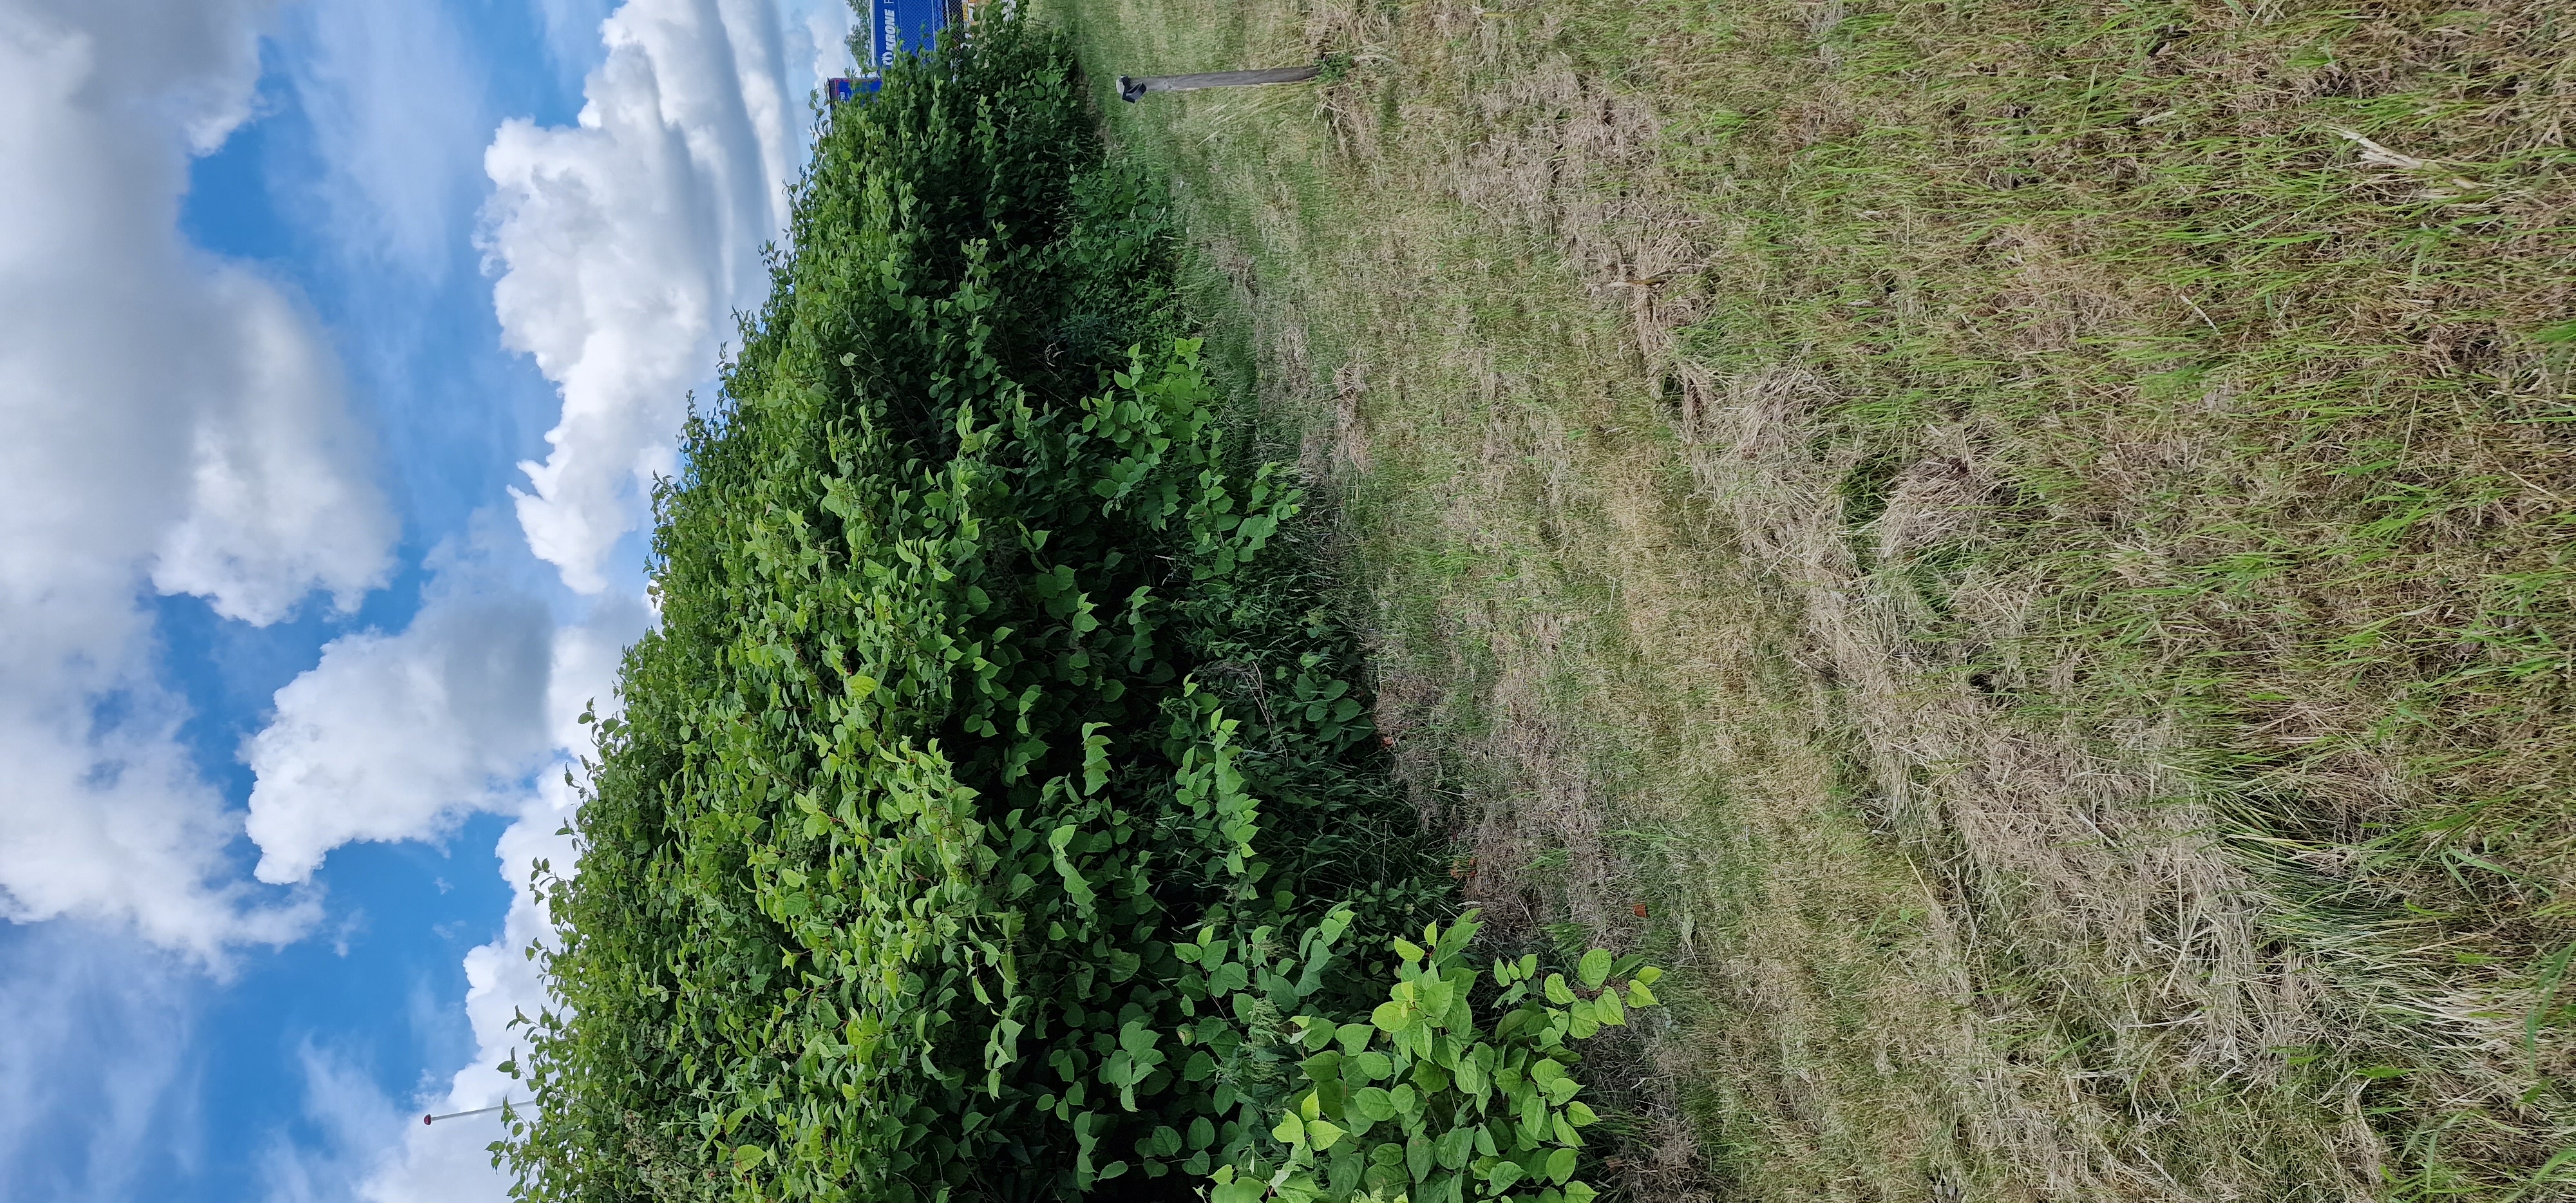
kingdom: Plantae
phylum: Tracheophyta
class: Magnoliopsida
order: Caryophyllales
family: Polygonaceae
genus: Reynoutria
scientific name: Reynoutria japonica
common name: Japan-pileurt
